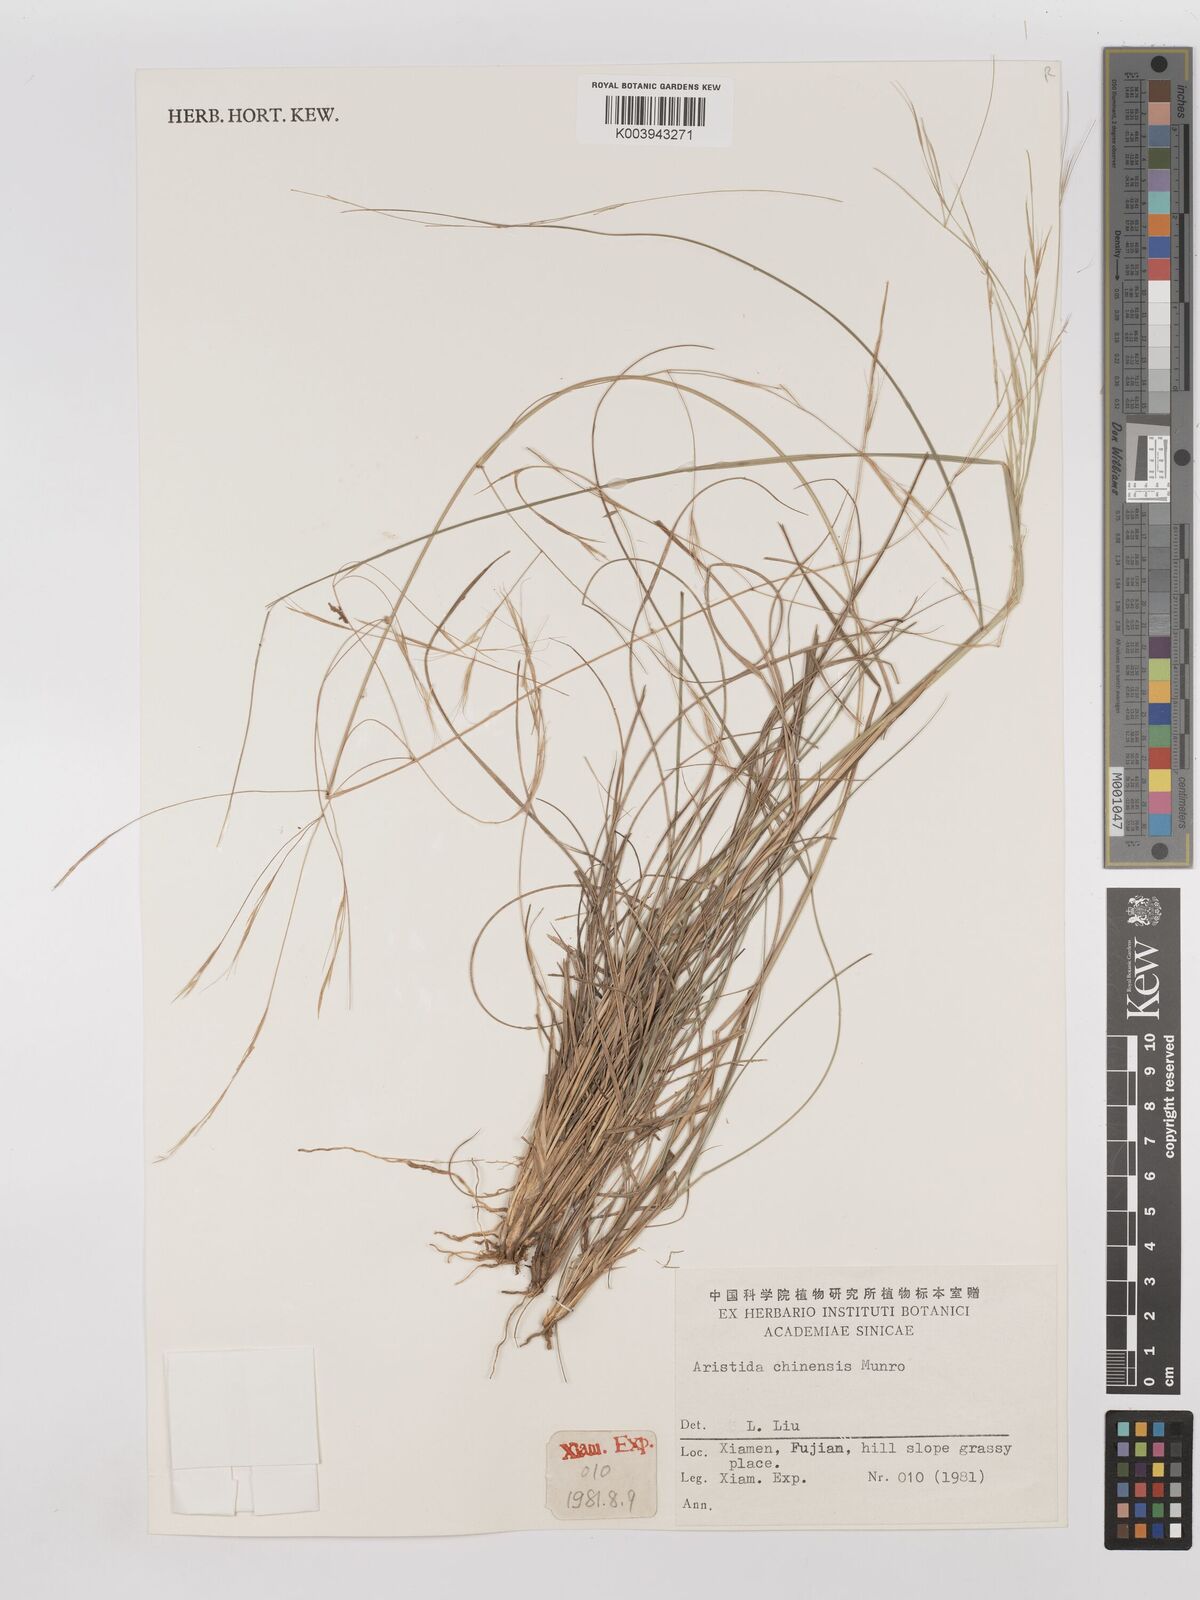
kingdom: Plantae
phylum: Tracheophyta
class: Liliopsida
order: Poales
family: Poaceae
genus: Aristida
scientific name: Aristida chinensis
